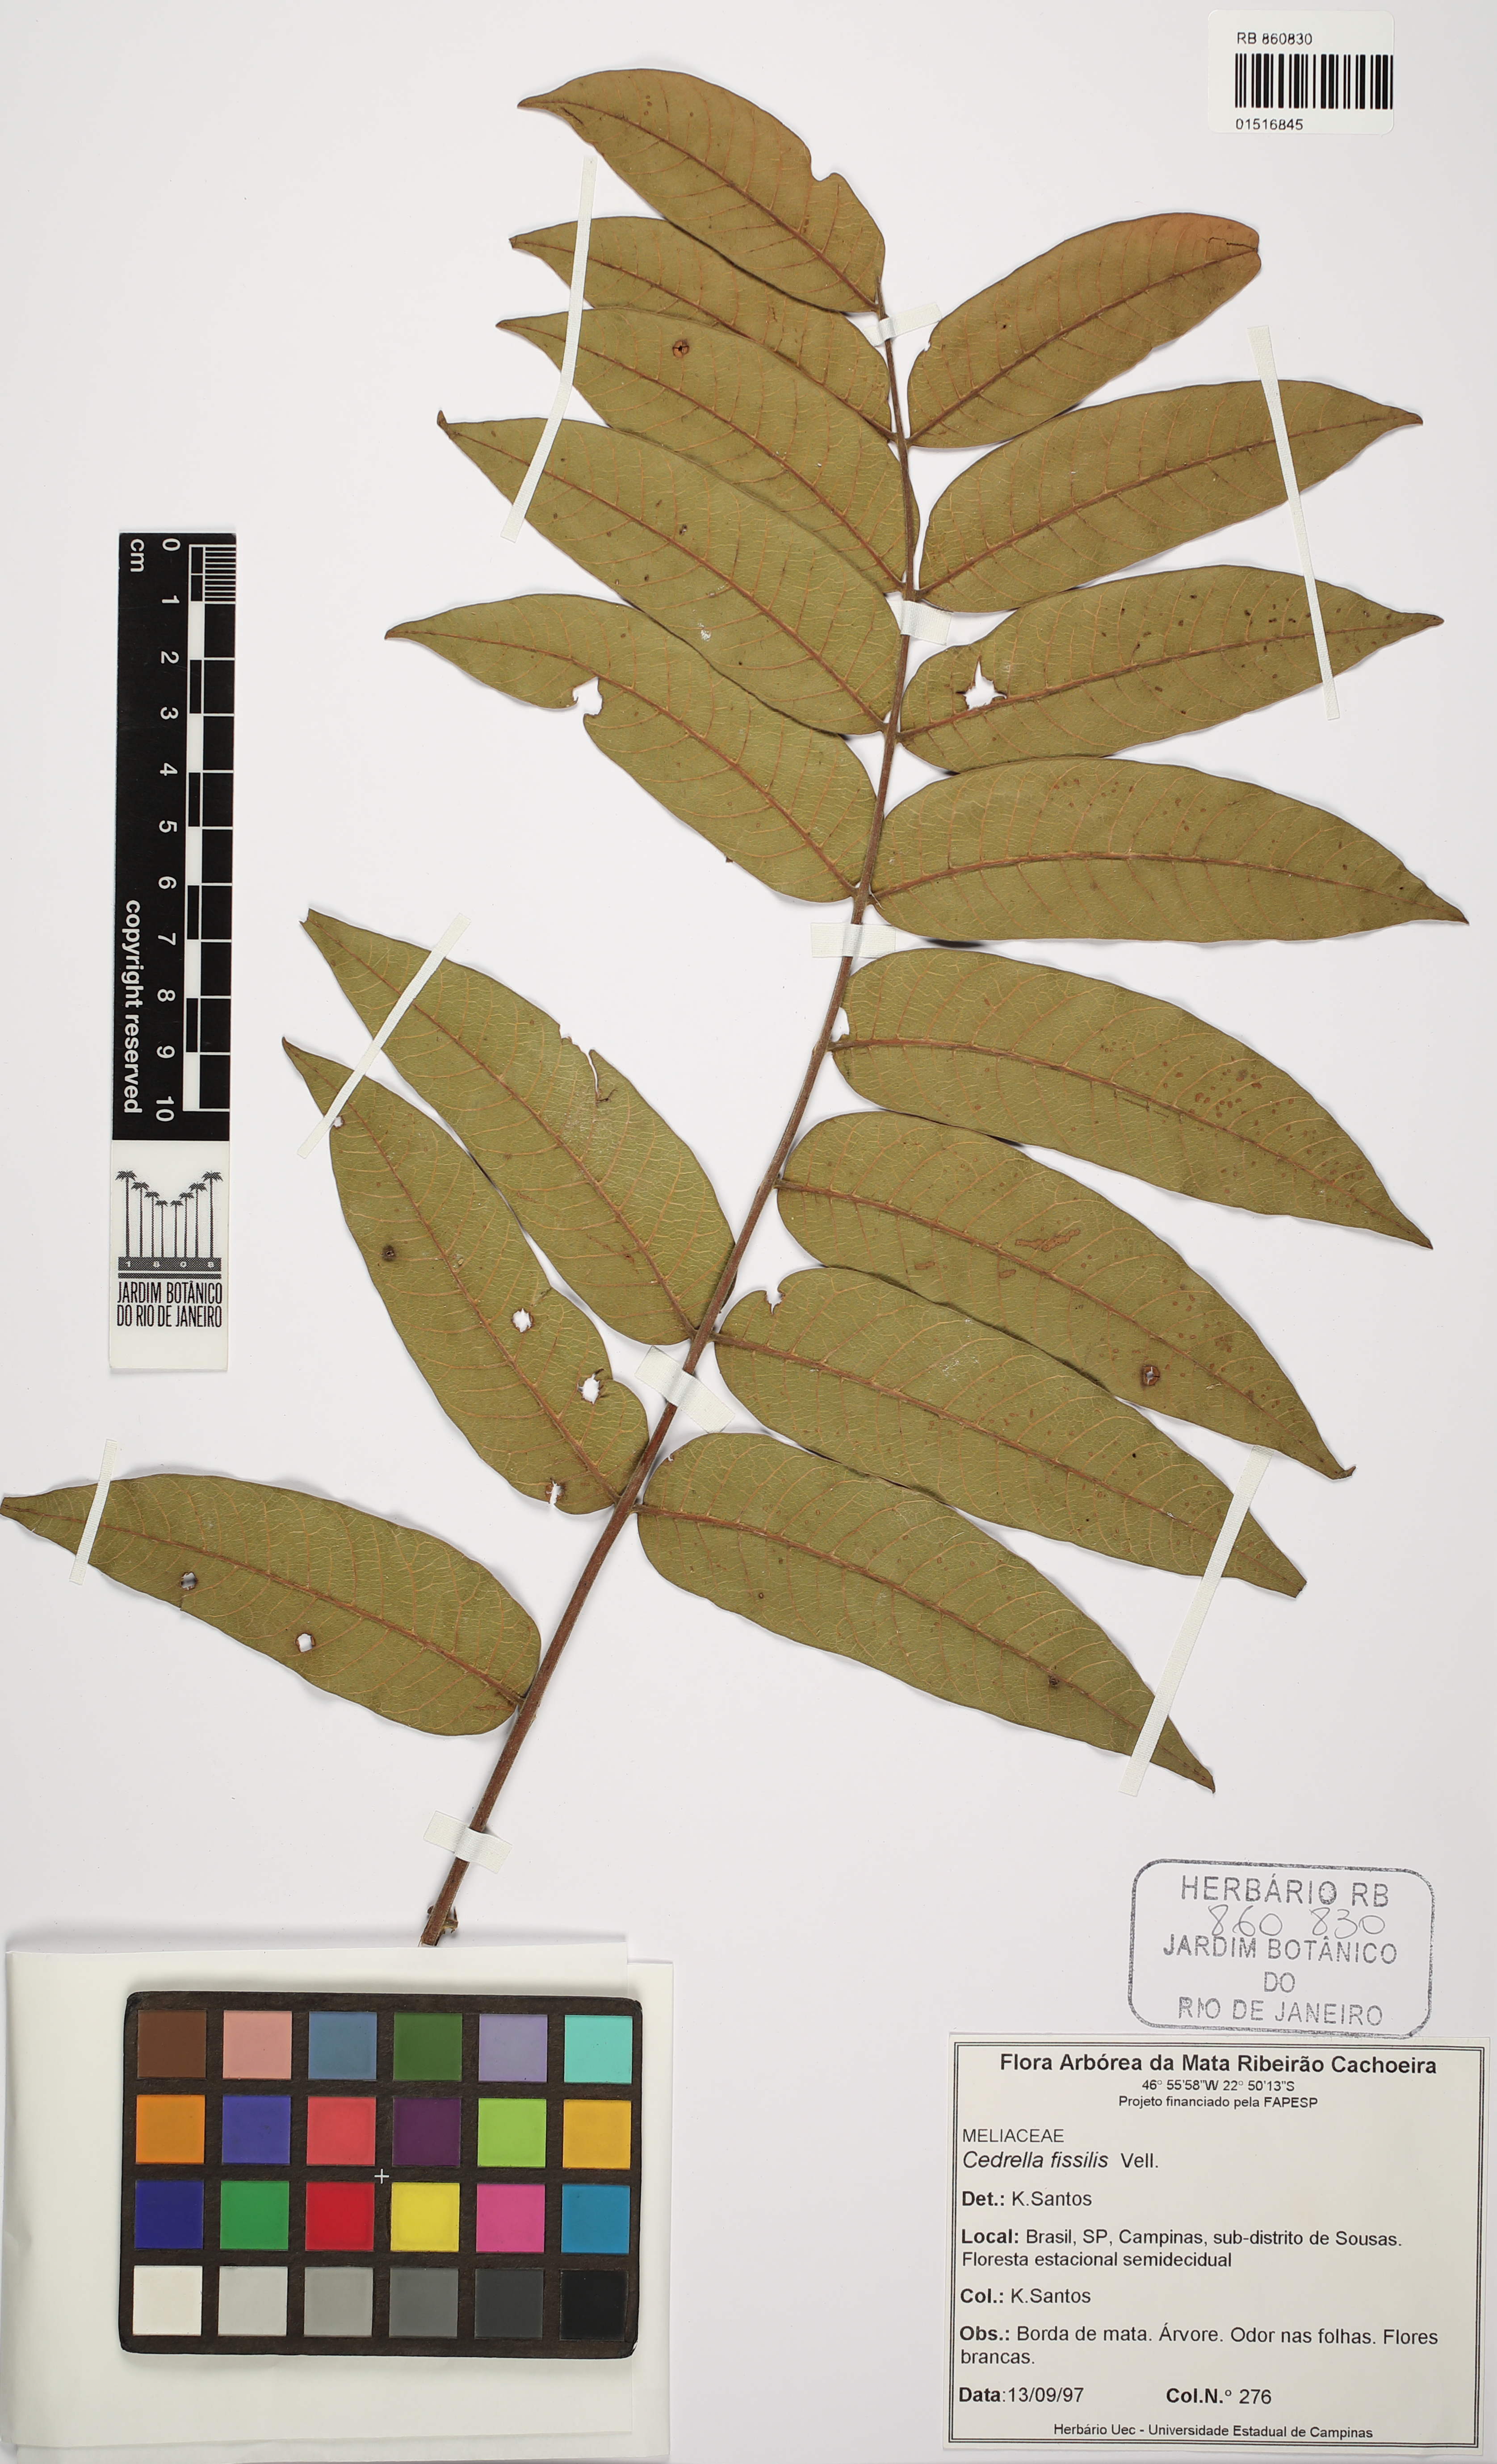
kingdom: Plantae
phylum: Tracheophyta
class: Magnoliopsida
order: Sapindales
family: Meliaceae
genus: Cedrela
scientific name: Cedrela fissilis
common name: Argentine cedar
